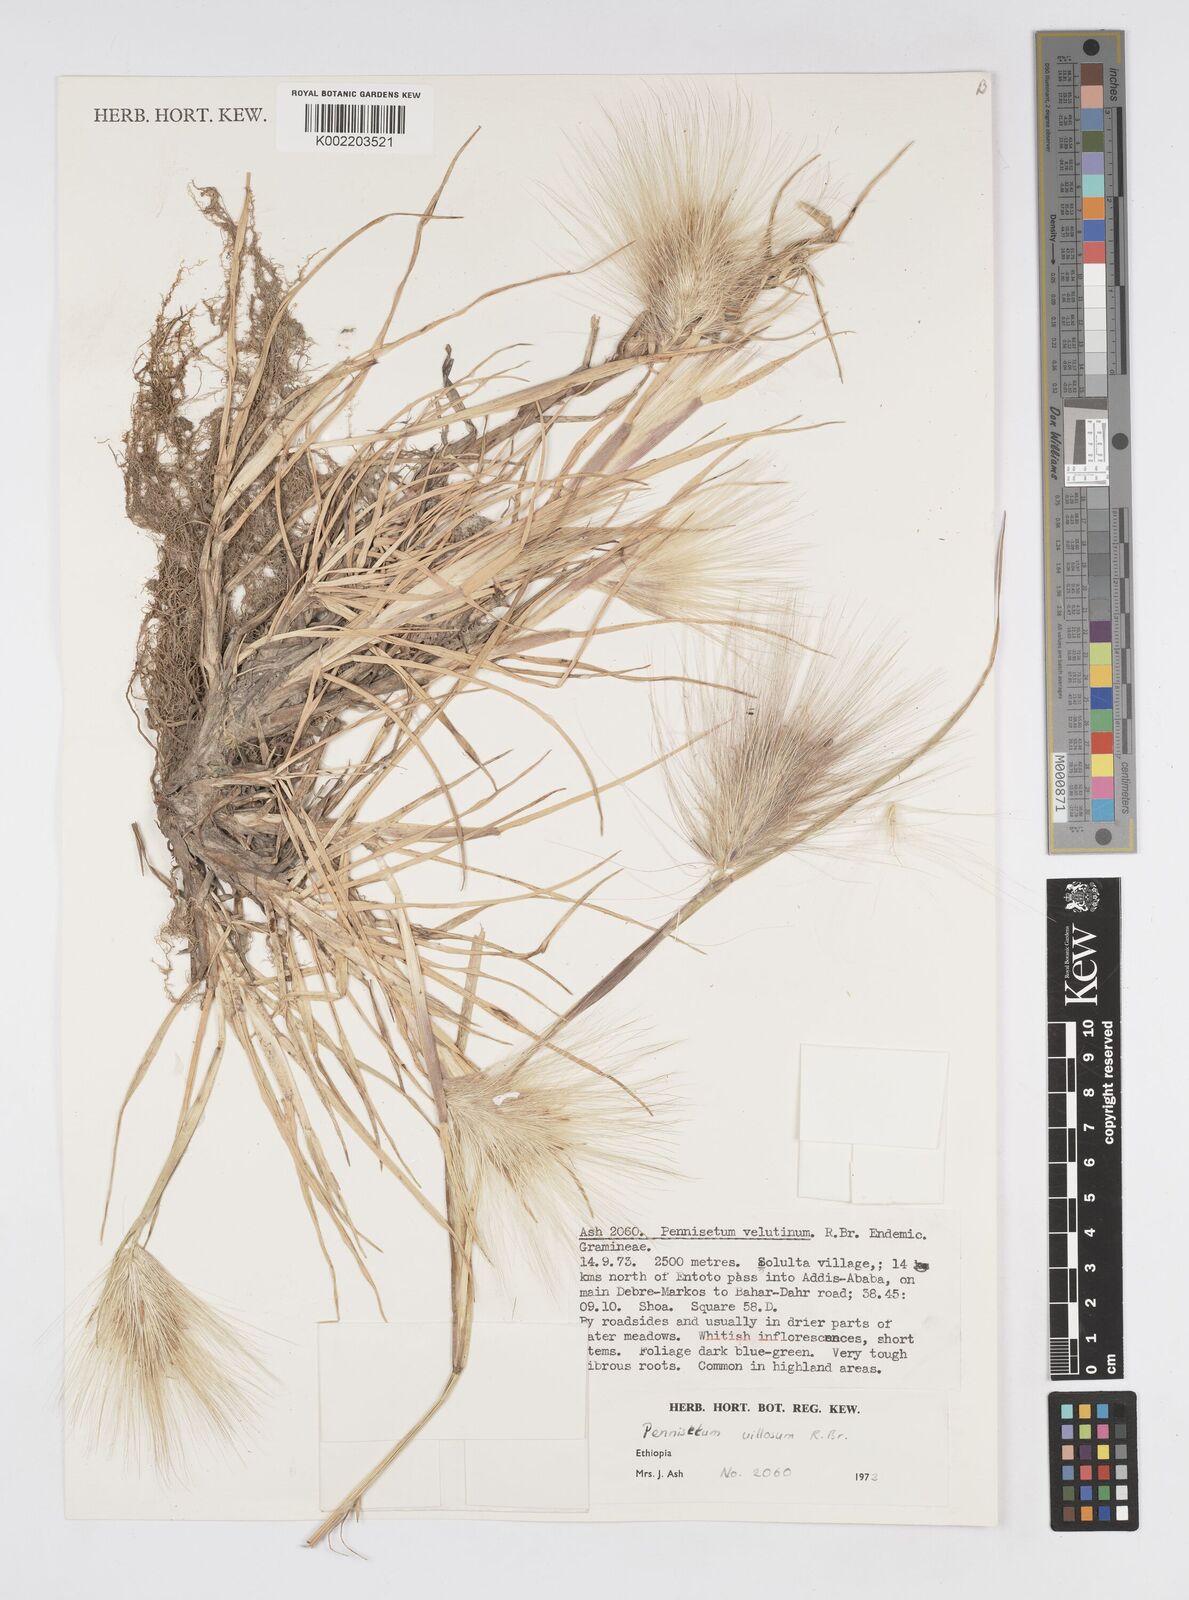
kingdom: Plantae
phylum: Tracheophyta
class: Liliopsida
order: Poales
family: Poaceae
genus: Cenchrus
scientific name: Cenchrus longisetus
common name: Feathertop
